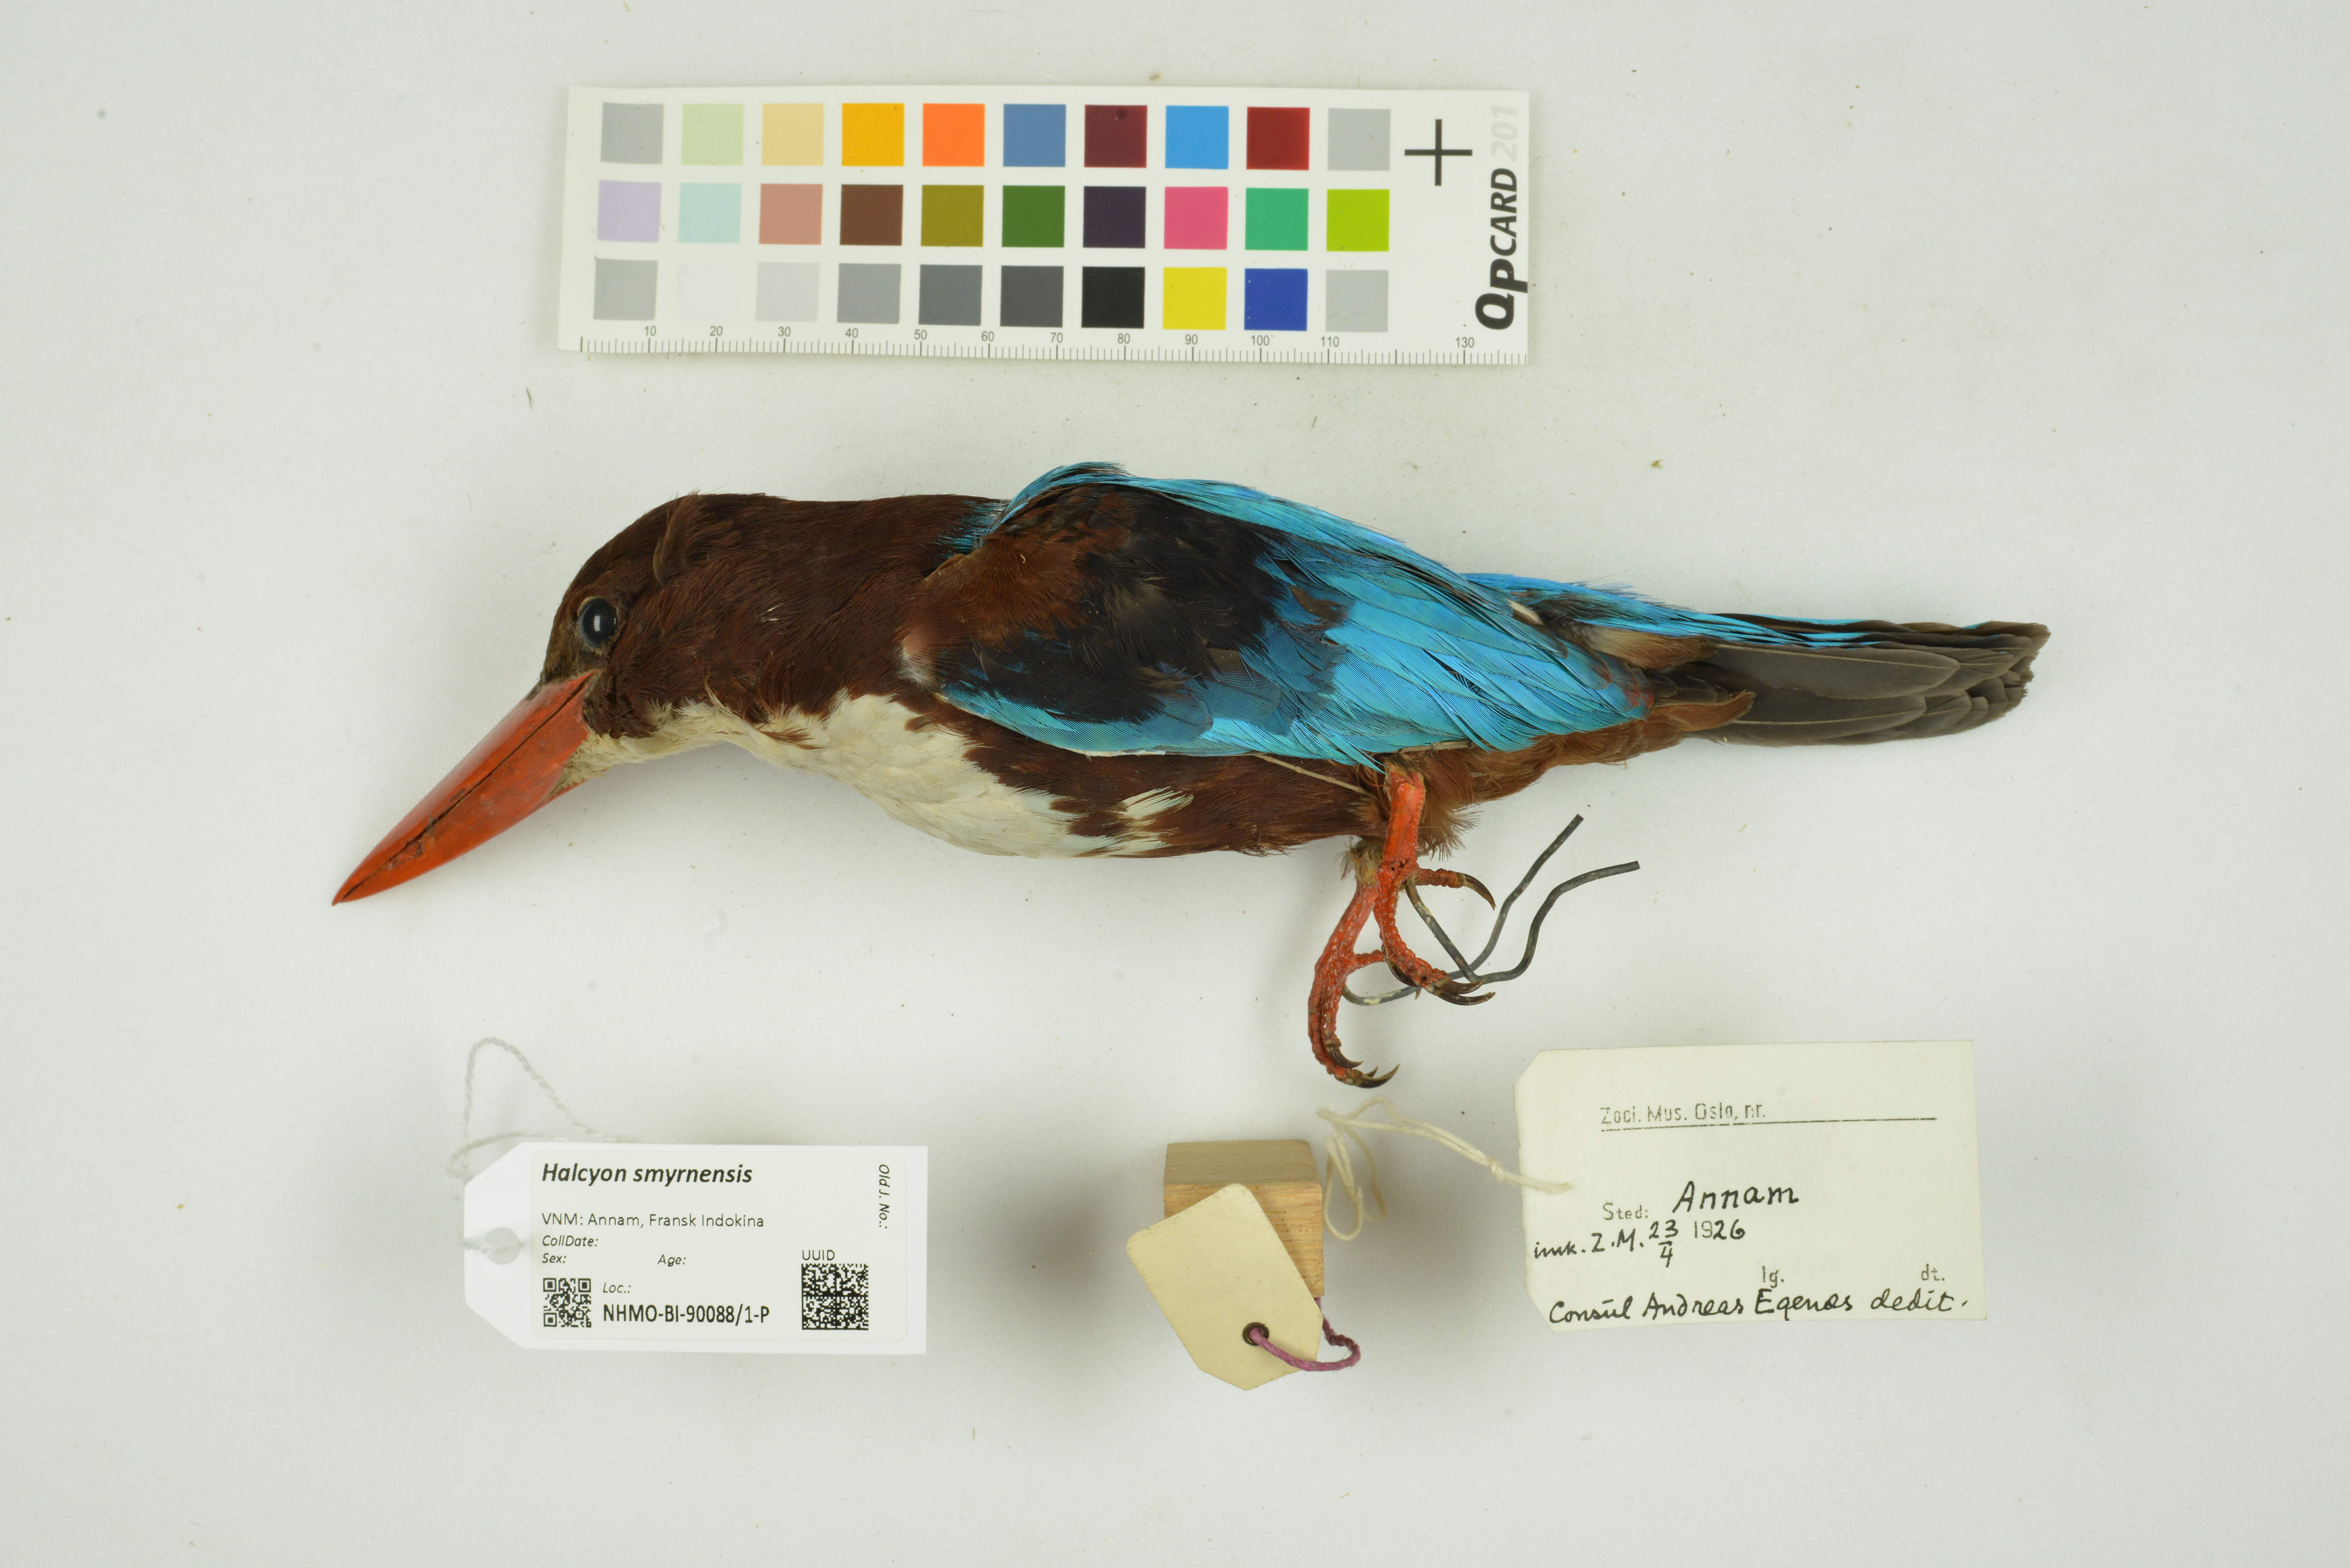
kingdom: Animalia
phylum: Chordata
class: Aves
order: Coraciiformes
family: Alcedinidae
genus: Halcyon
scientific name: Halcyon smyrnensis
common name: White-throated kingfisher
